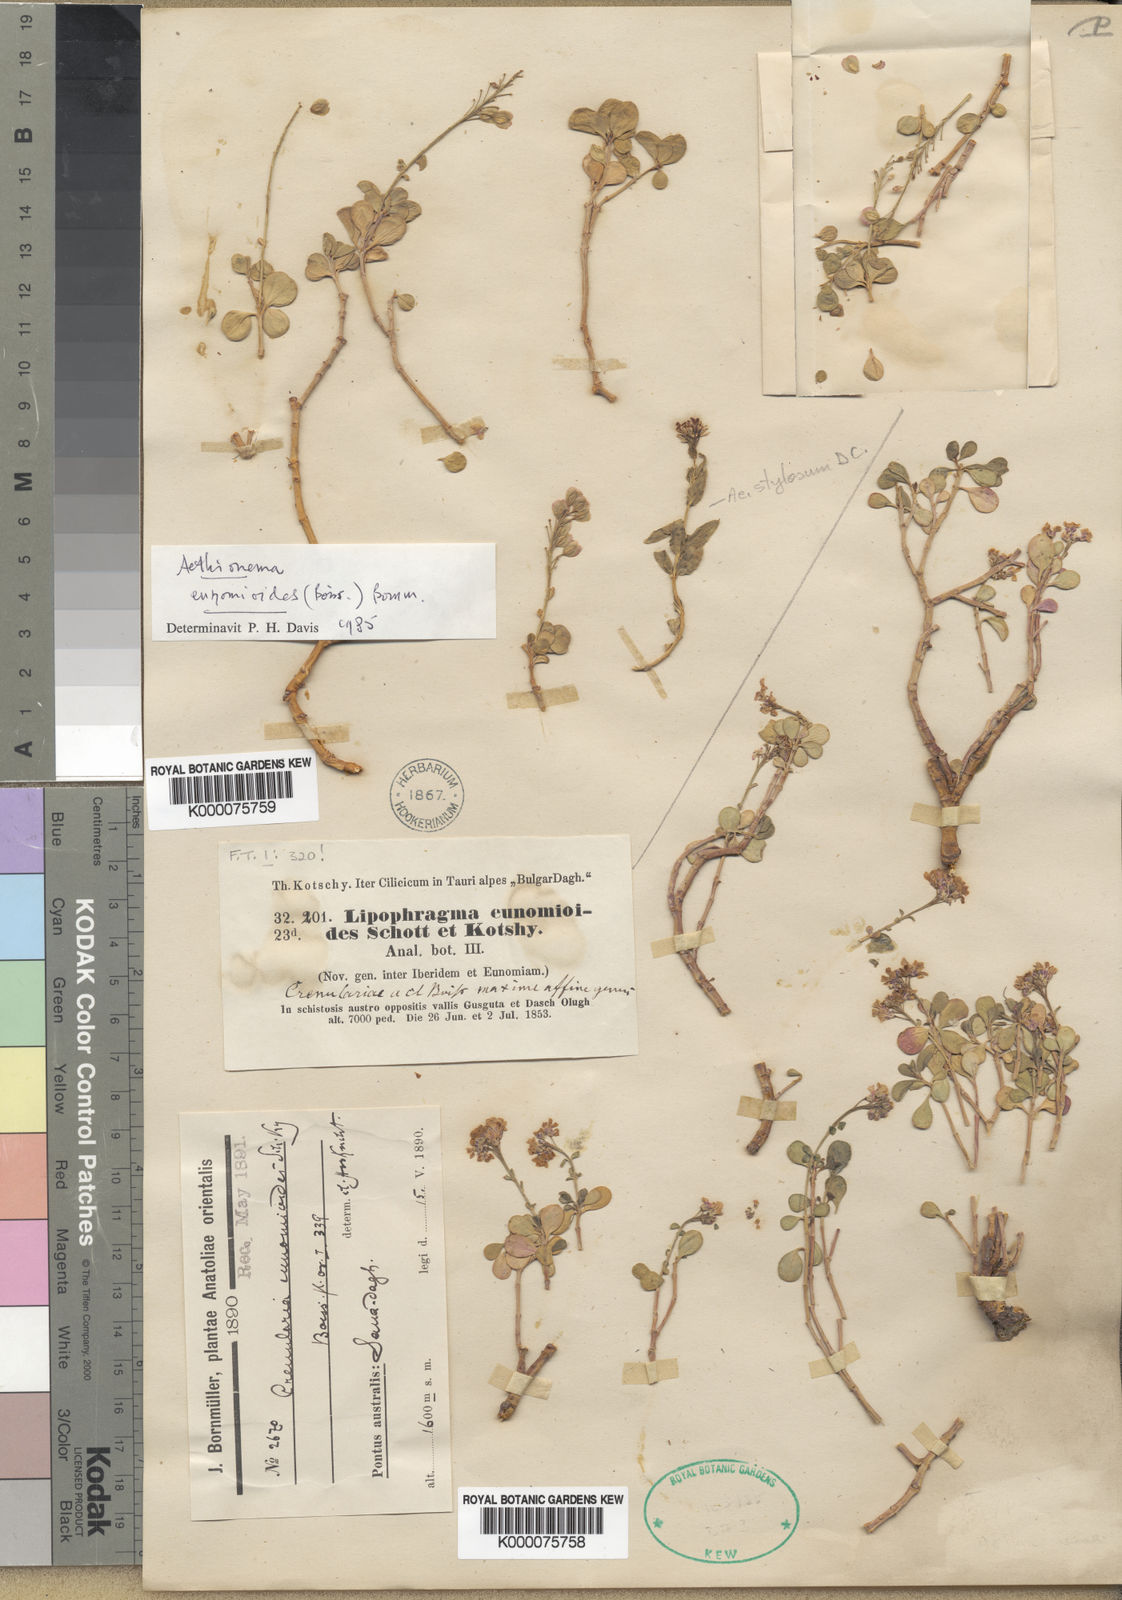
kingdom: Plantae
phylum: Tracheophyta
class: Magnoliopsida
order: Brassicales
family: Brassicaceae
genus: Aethionema
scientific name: Aethionema eunomioides
